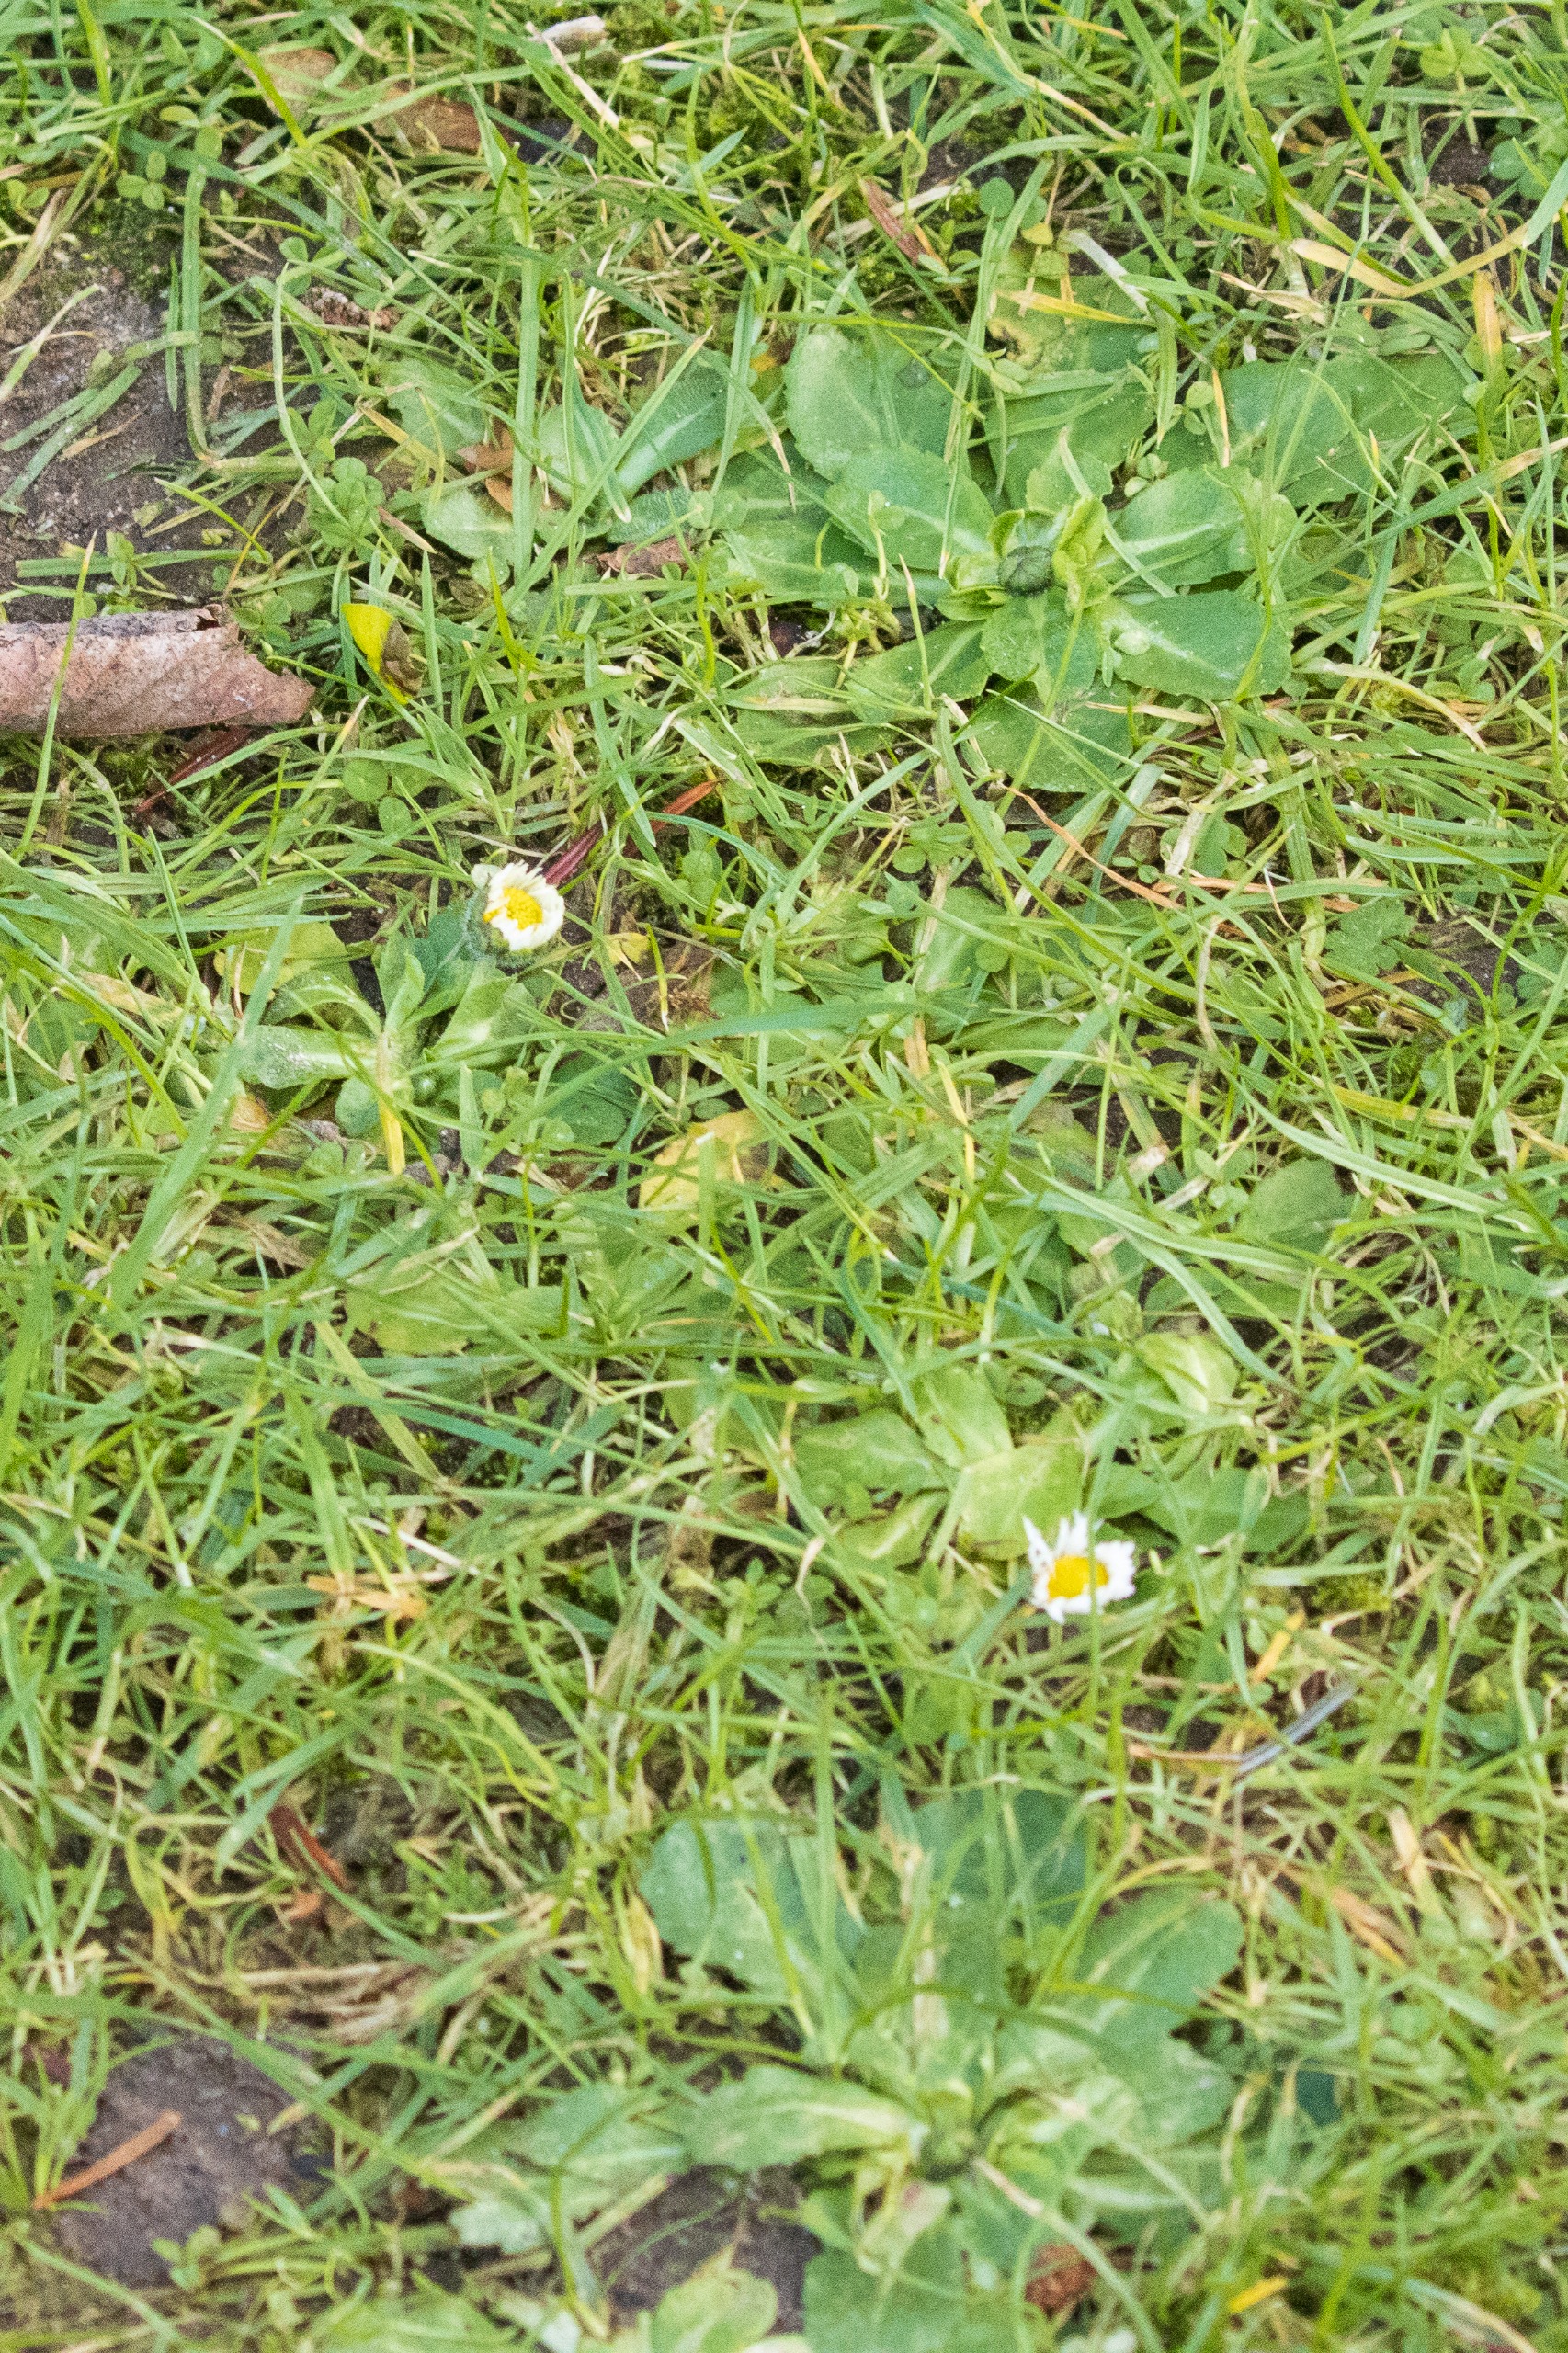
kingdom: Plantae
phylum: Tracheophyta
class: Magnoliopsida
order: Asterales
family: Asteraceae
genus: Bellis
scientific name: Bellis perennis
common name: Tusindfryd
